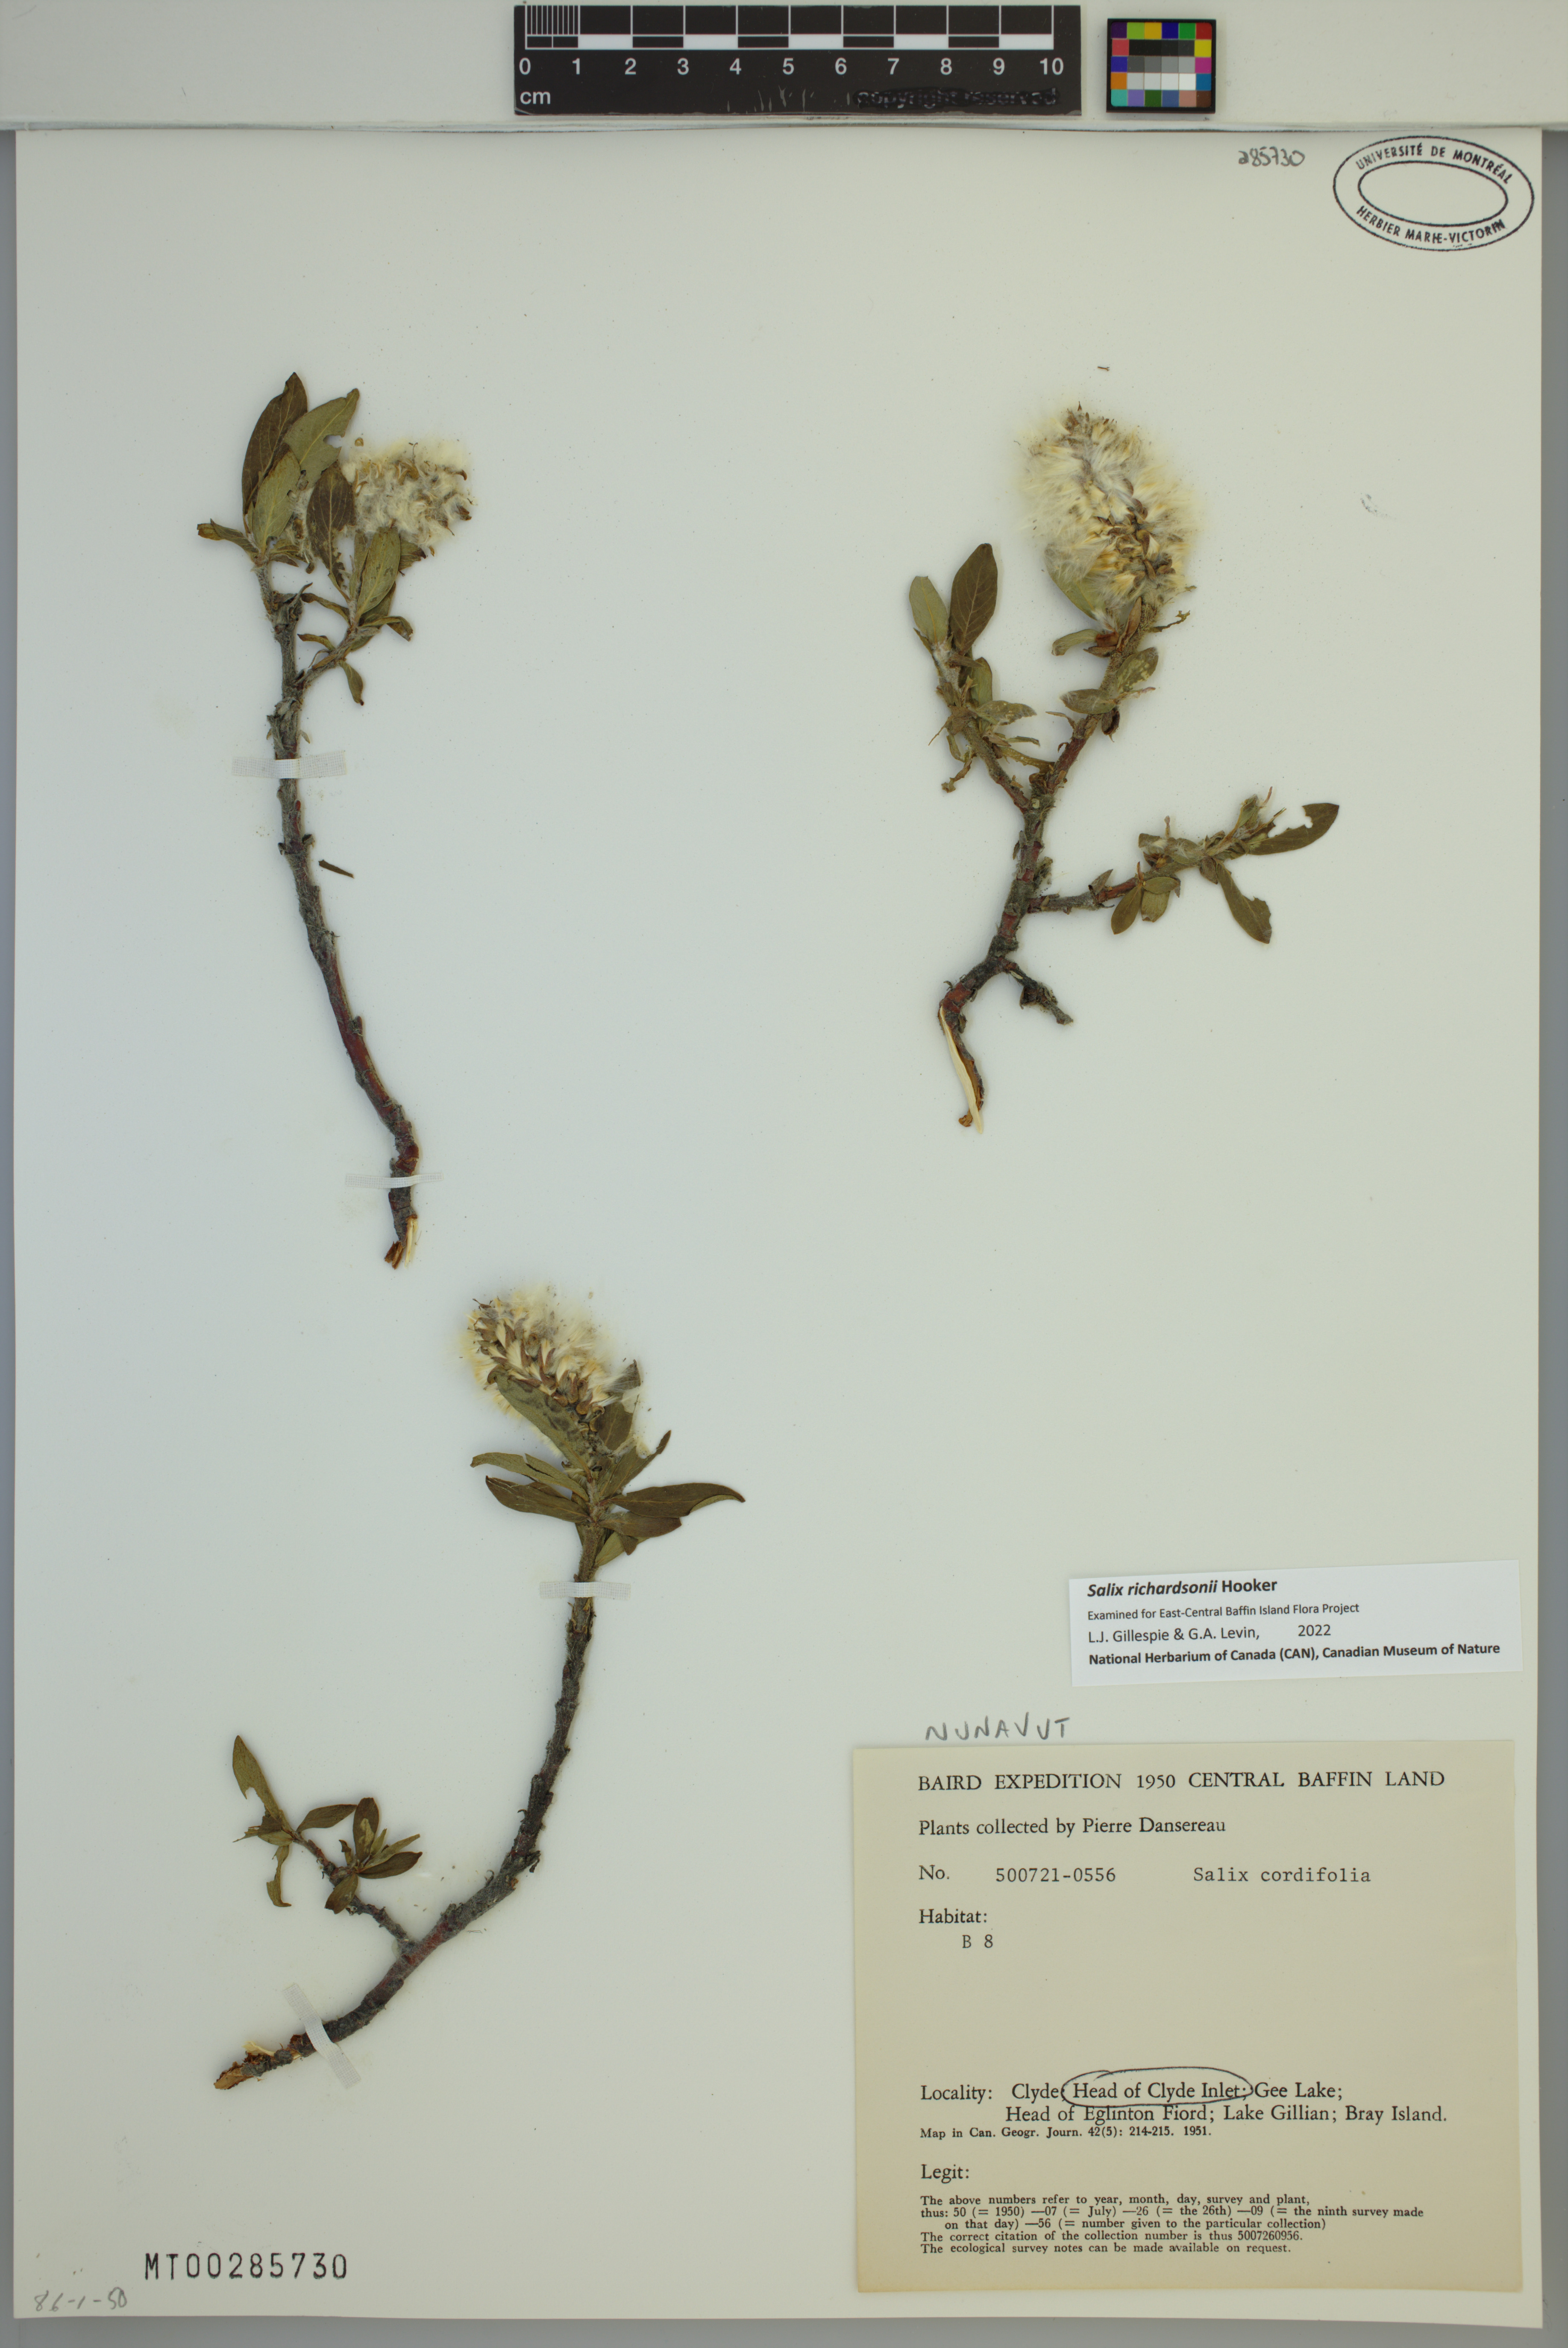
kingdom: Plantae
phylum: Tracheophyta
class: Magnoliopsida
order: Malpighiales
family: Salicaceae
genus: Salix
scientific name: Salix richardsonii
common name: Richardson’s willow
